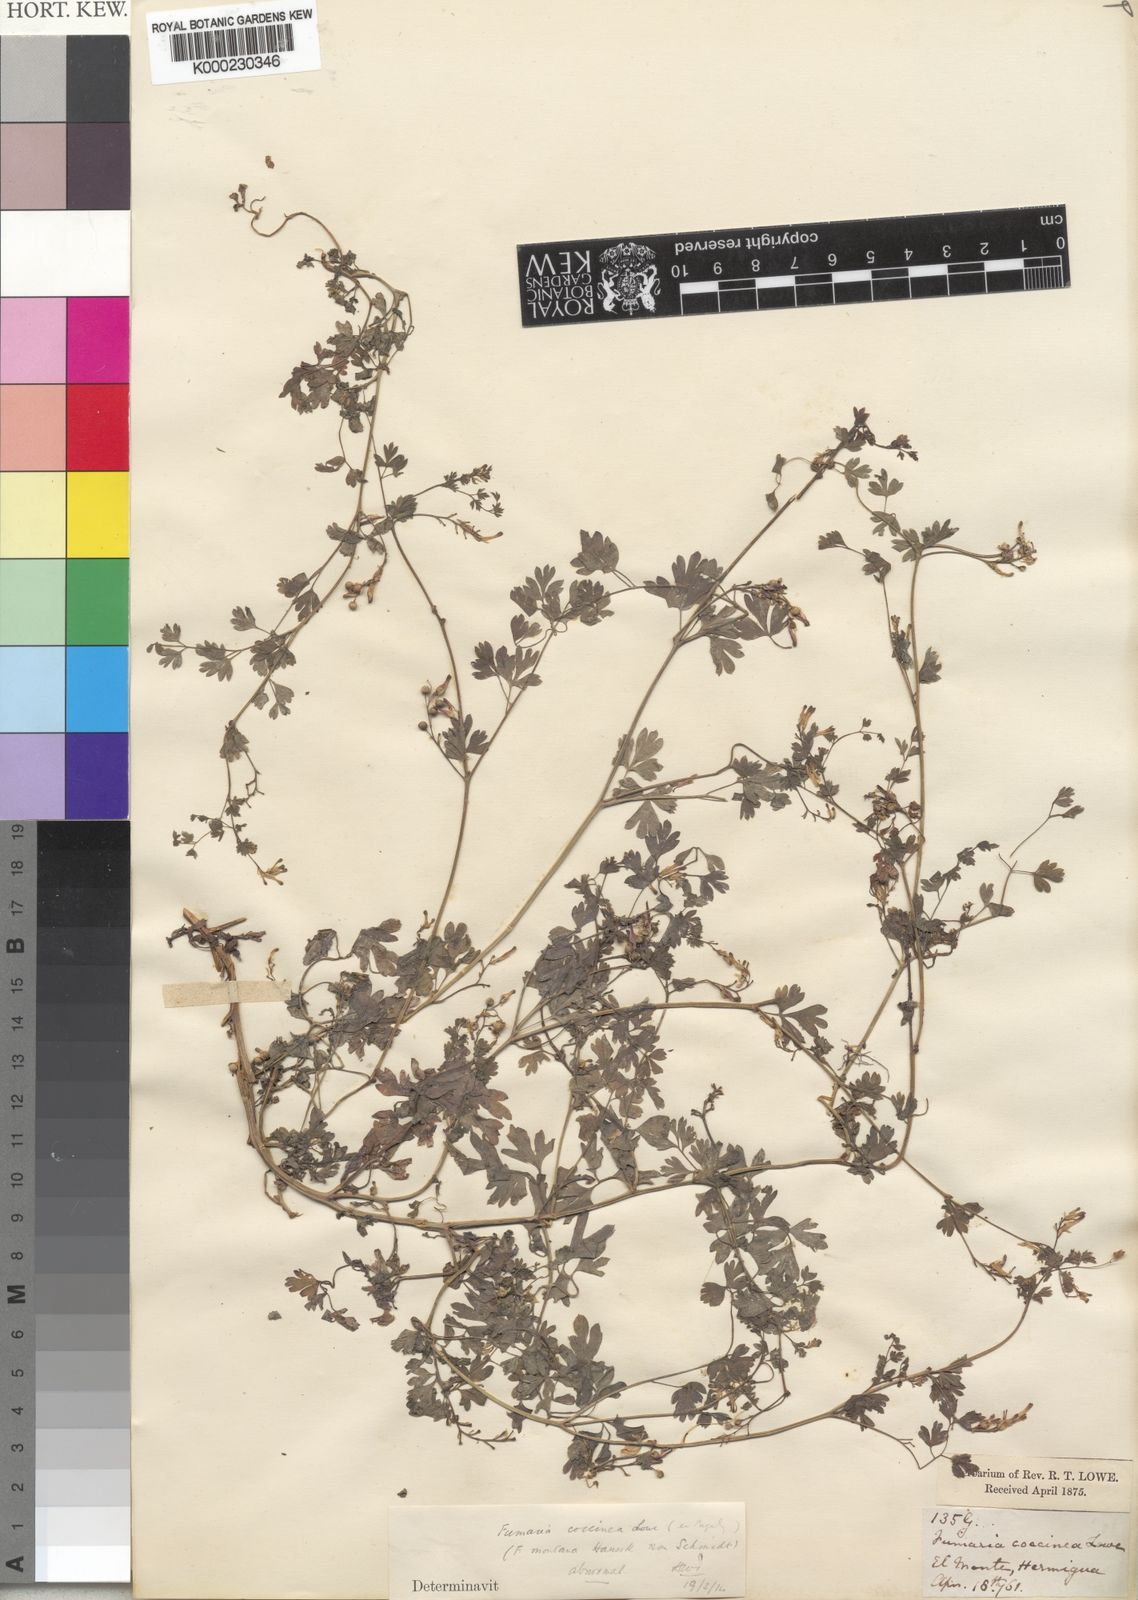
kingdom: Plantae
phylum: Tracheophyta
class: Magnoliopsida
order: Ranunculales
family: Papaveraceae
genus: Fumaria
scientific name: Fumaria coccinea
